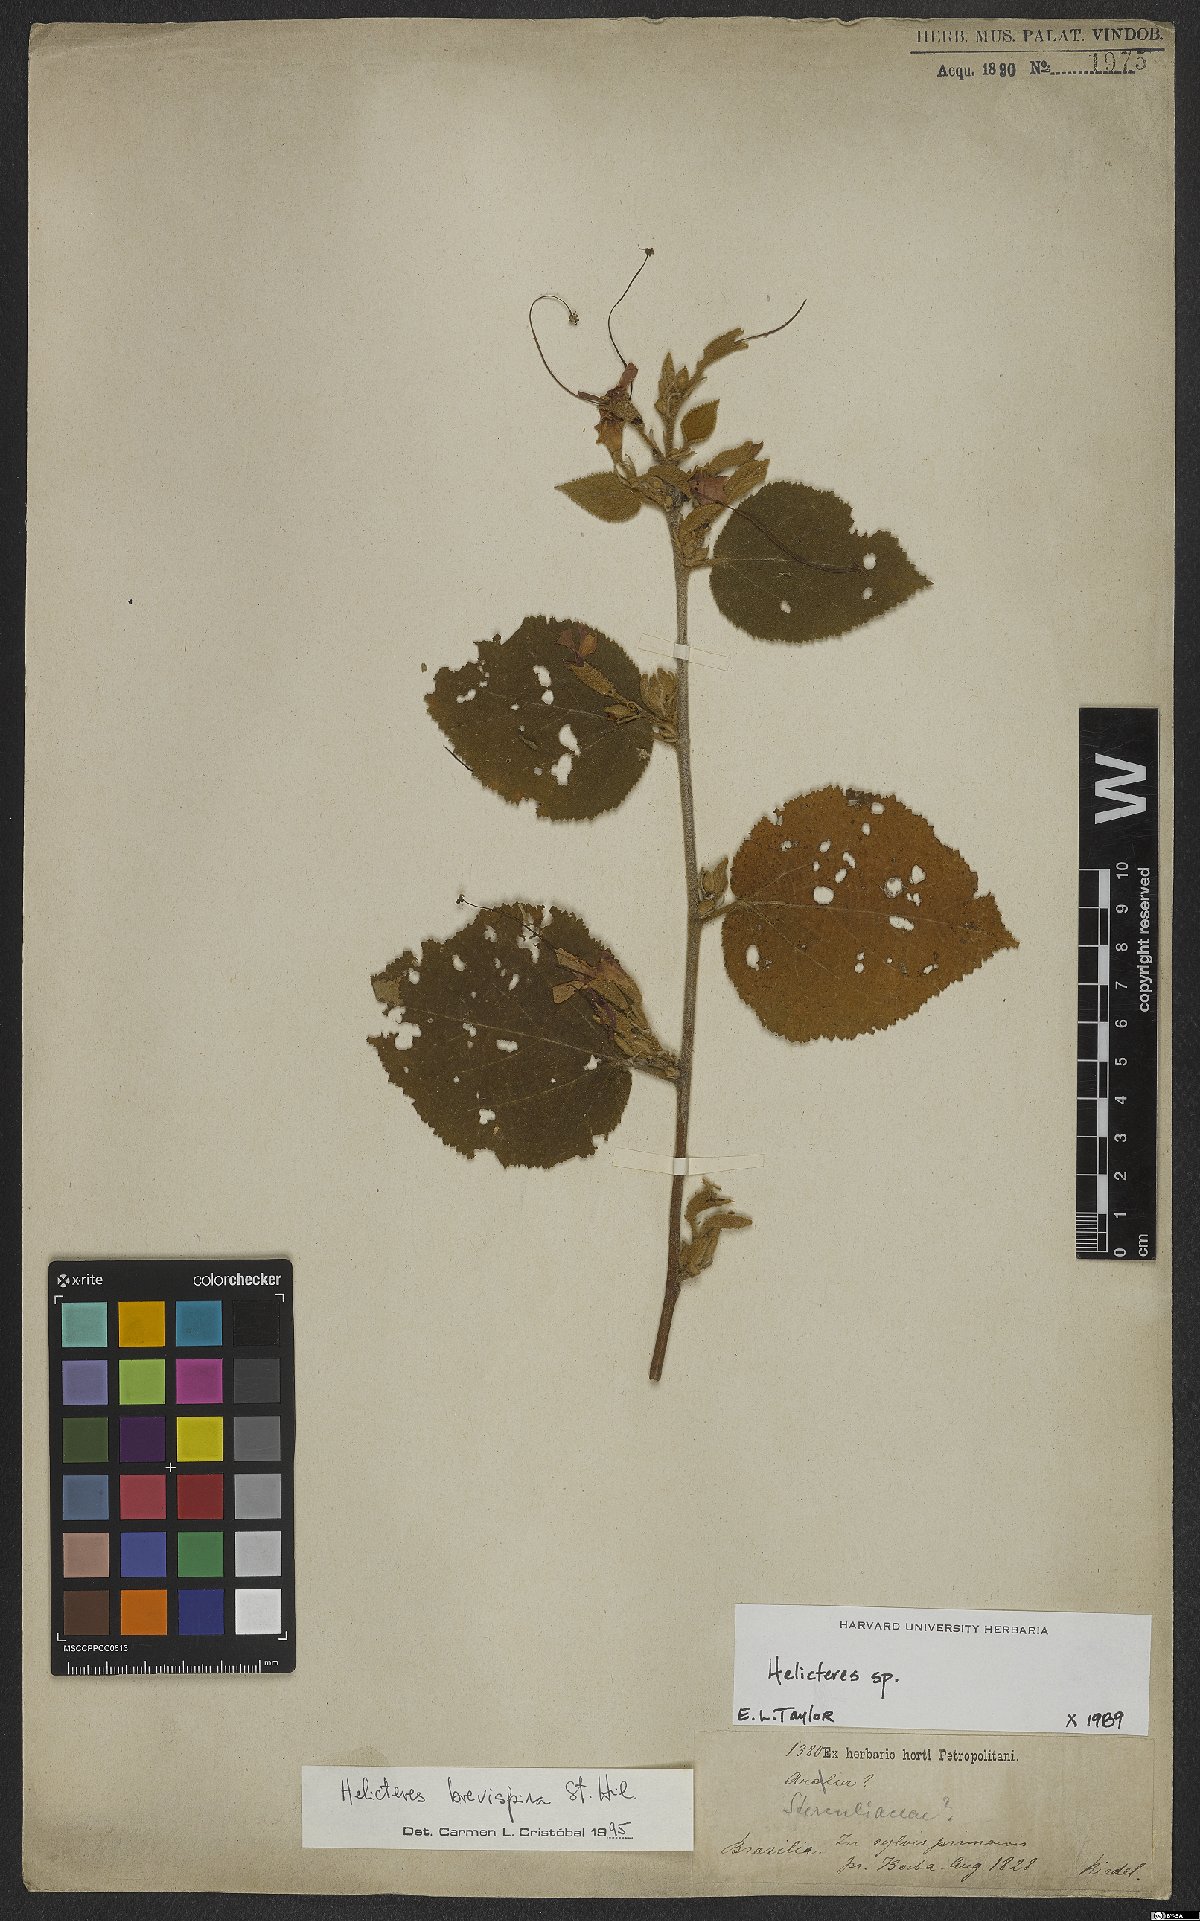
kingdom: Plantae
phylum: Tracheophyta
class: Magnoliopsida
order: Malvales
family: Malvaceae
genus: Helicteres
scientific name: Helicteres brevispira
